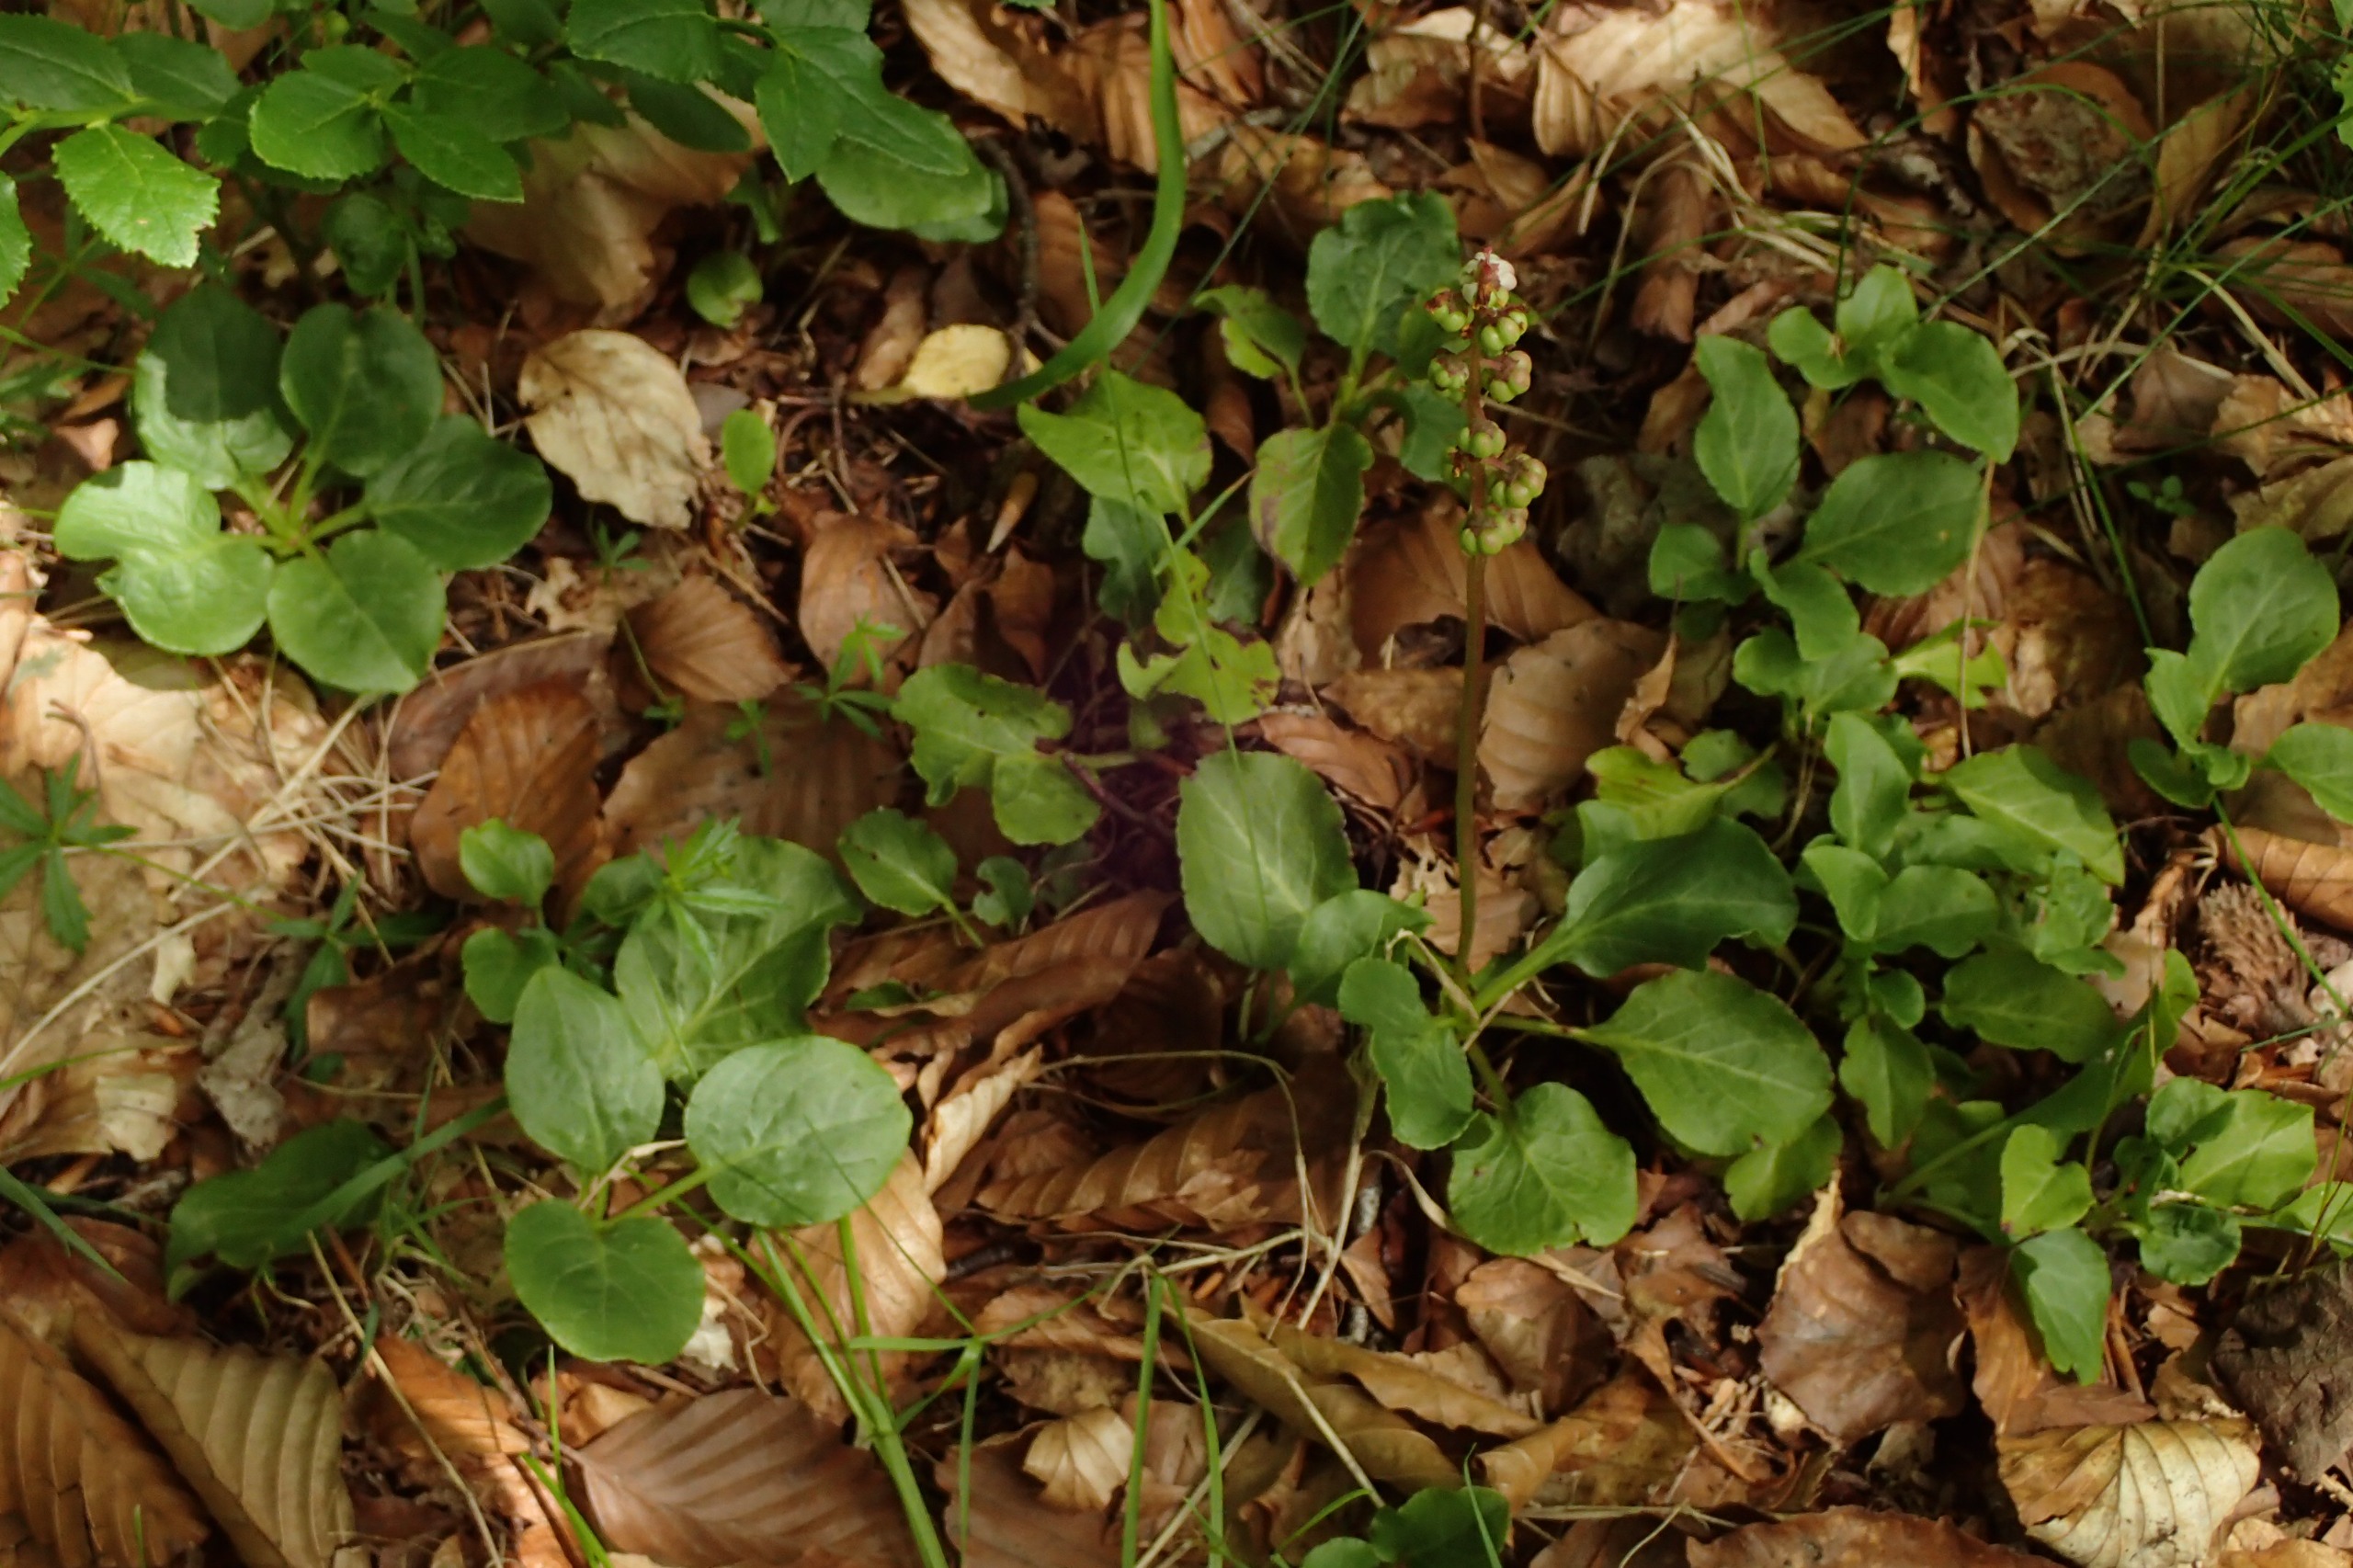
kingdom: Plantae
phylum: Tracheophyta
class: Magnoliopsida
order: Ericales
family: Ericaceae
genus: Pyrola
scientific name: Pyrola minor
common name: Liden vintergrøn
